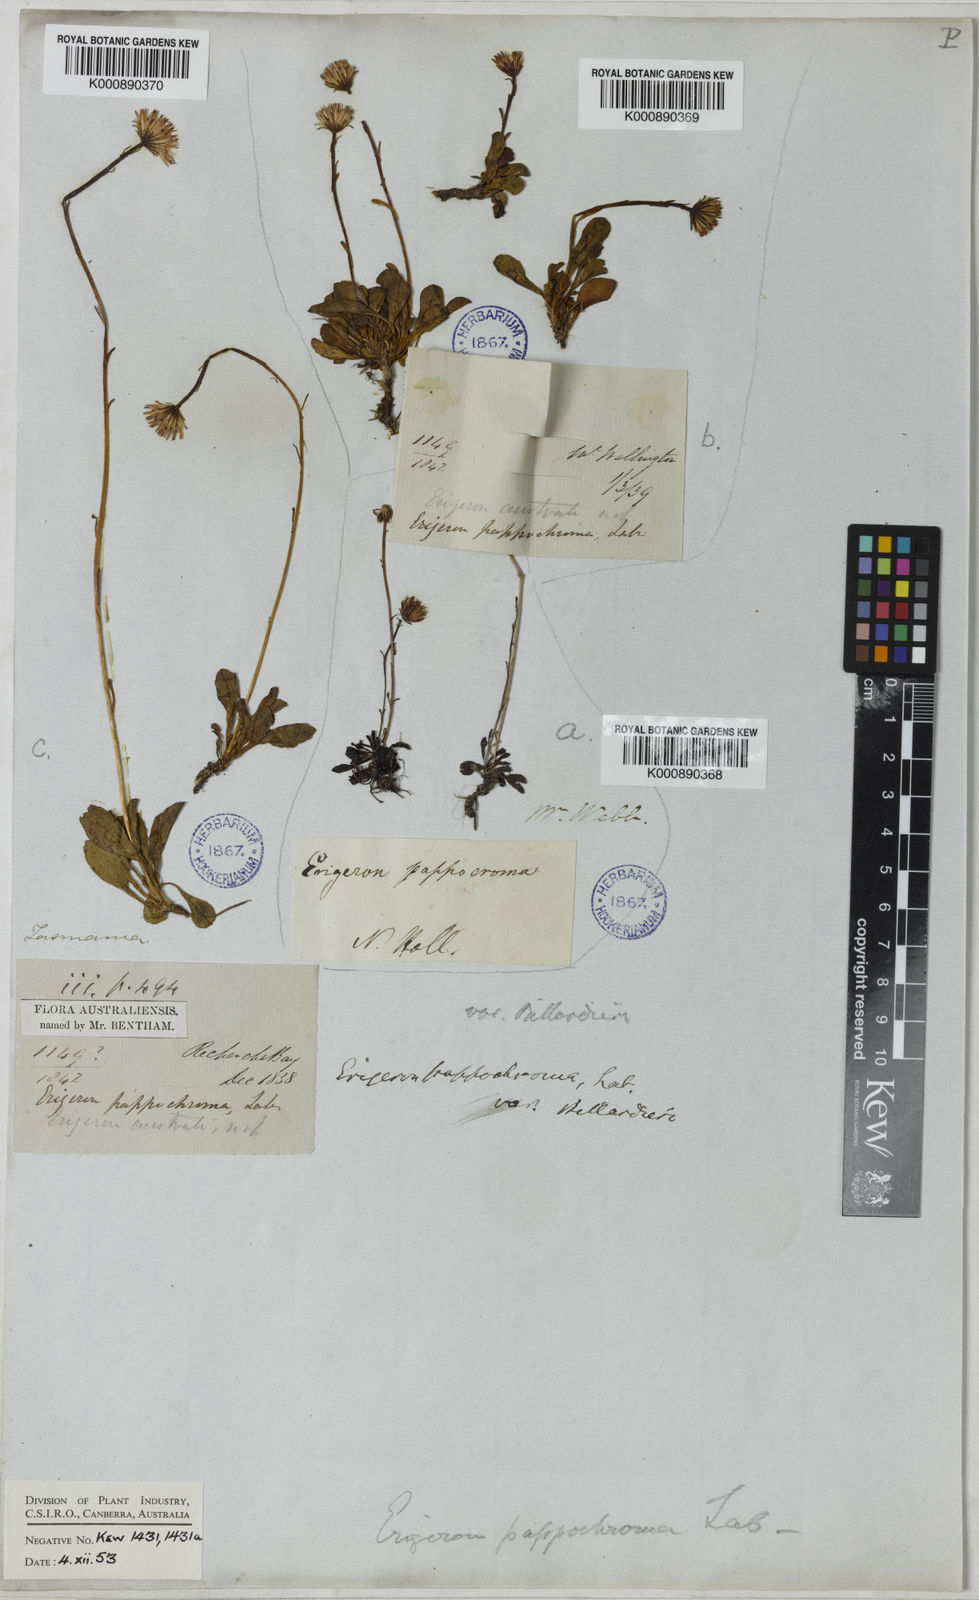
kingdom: Plantae
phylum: Tracheophyta
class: Magnoliopsida
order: Asterales
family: Asteraceae
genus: Pappochroma
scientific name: Pappochroma pappocromum
